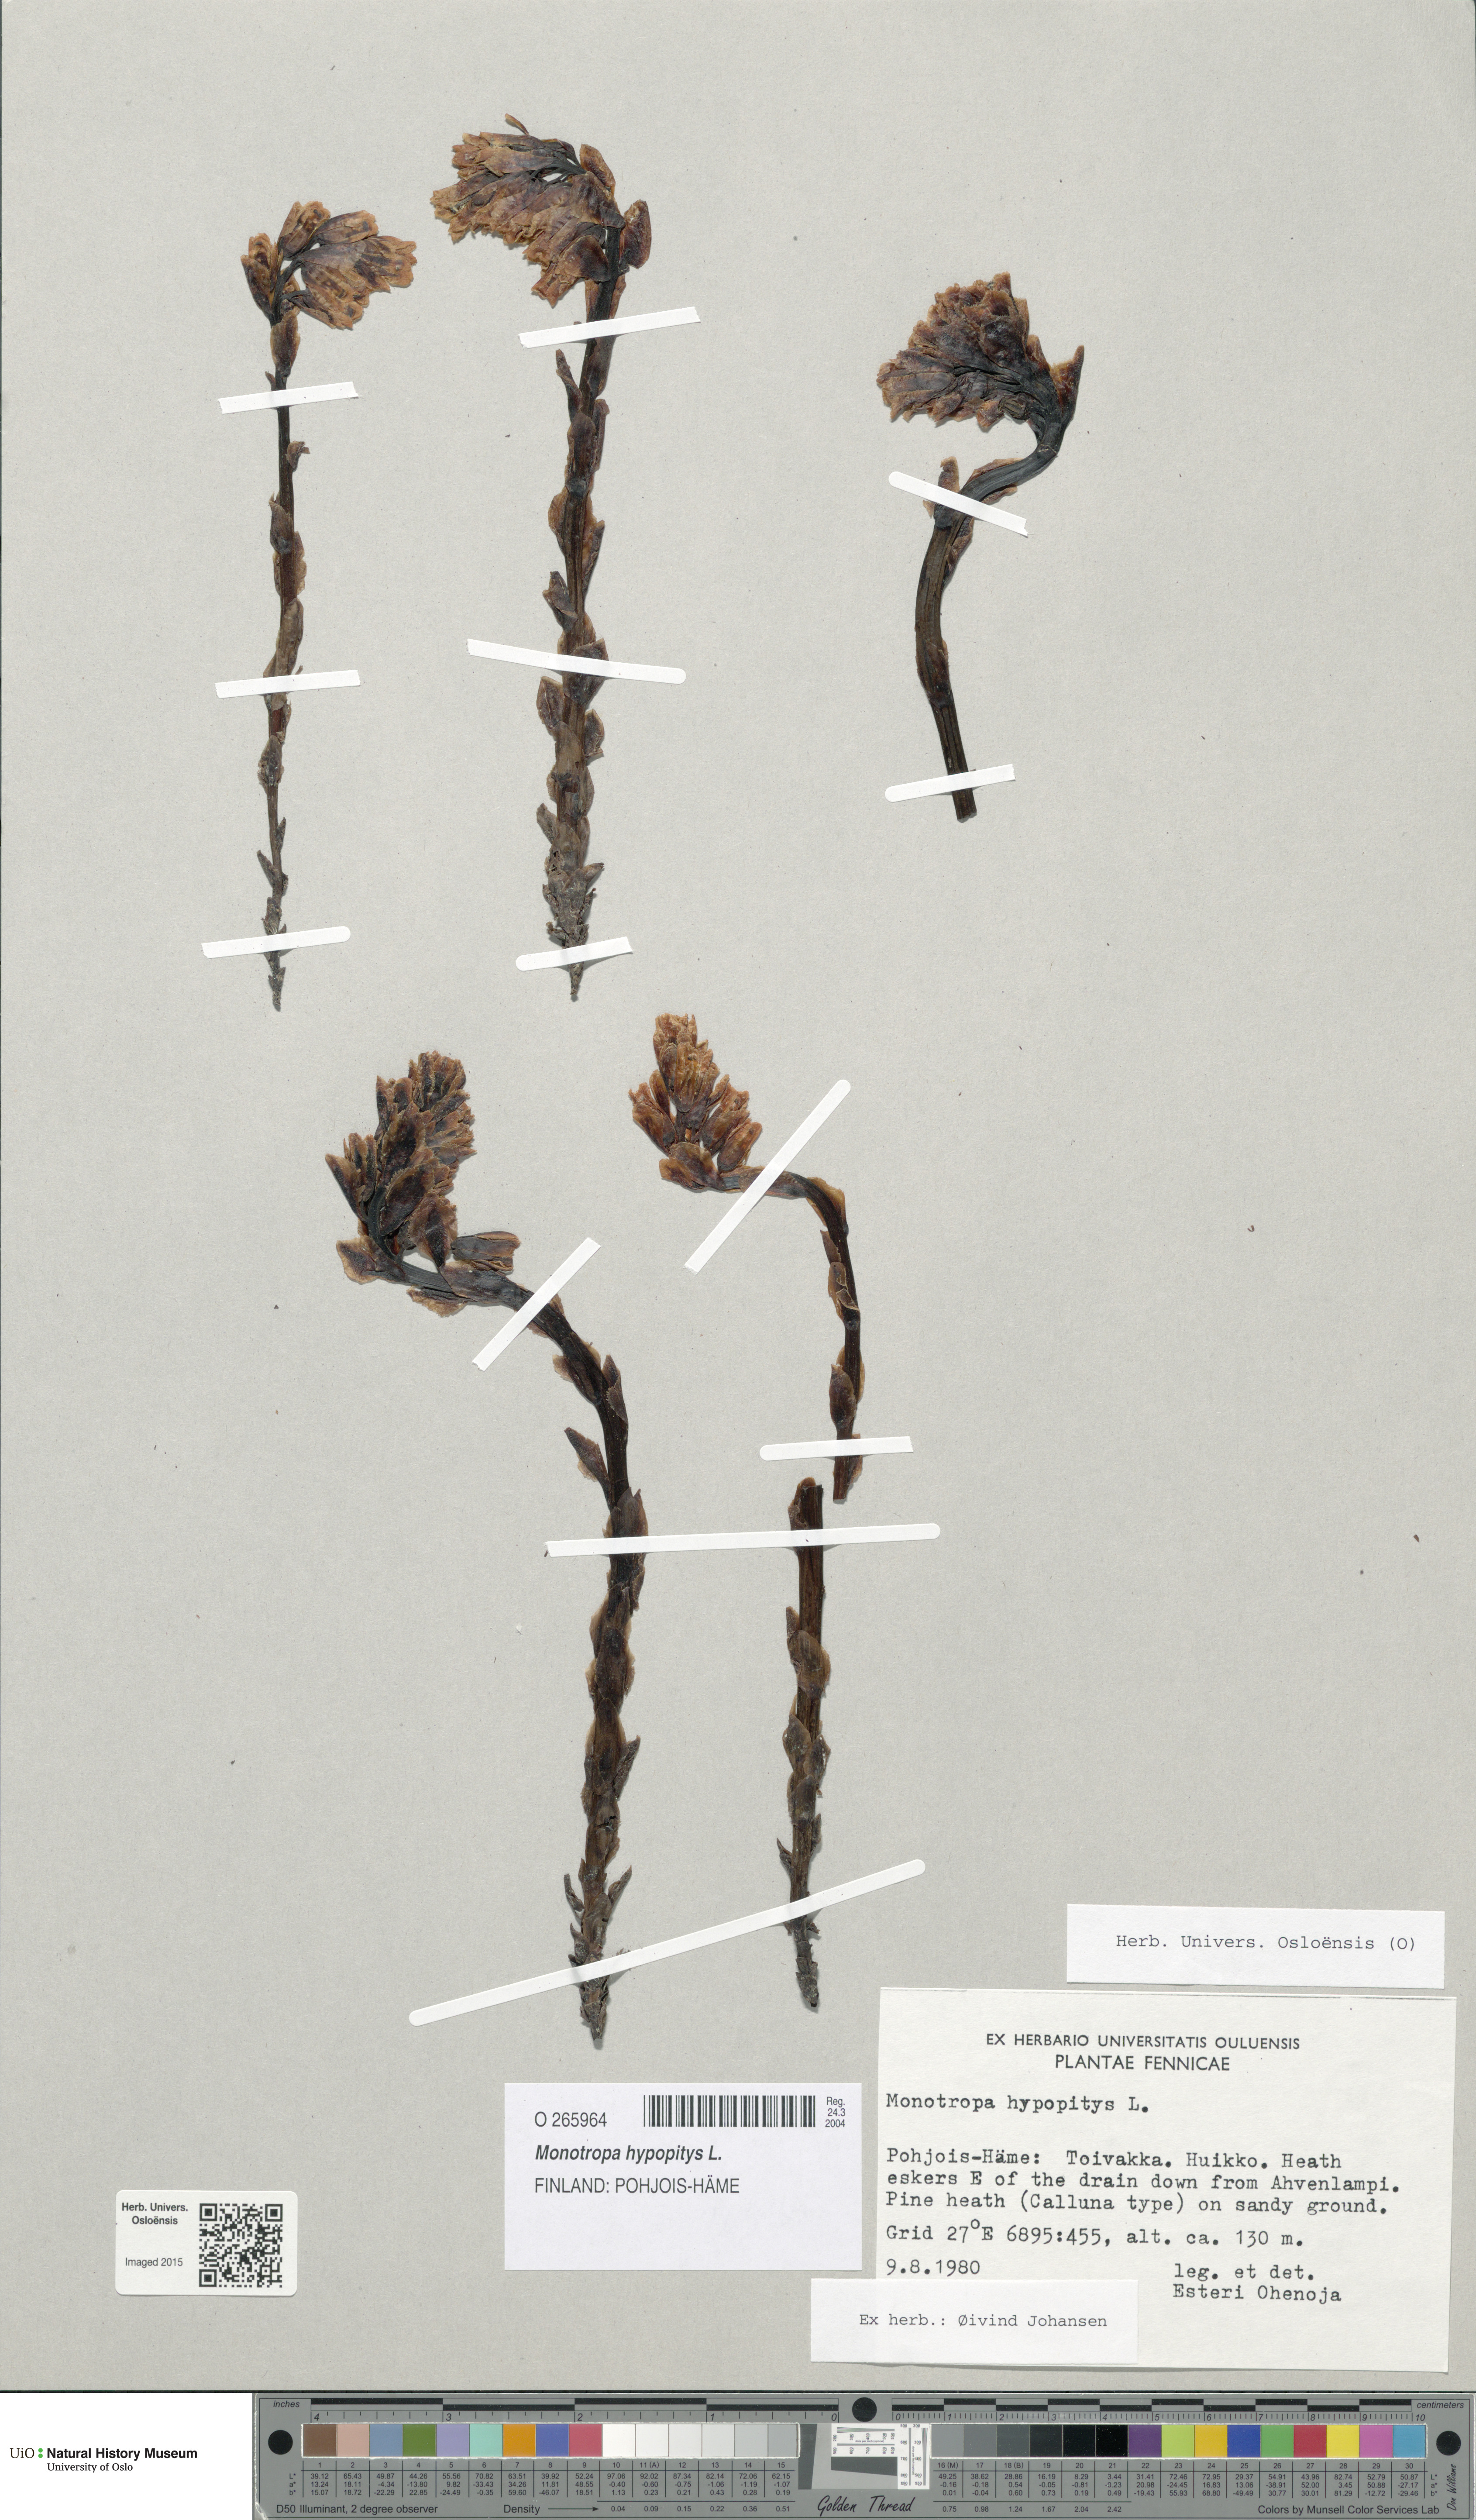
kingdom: Plantae
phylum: Tracheophyta
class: Magnoliopsida
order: Ericales
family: Ericaceae
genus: Hypopitys
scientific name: Hypopitys monotropa
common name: Yellow bird's-nest
